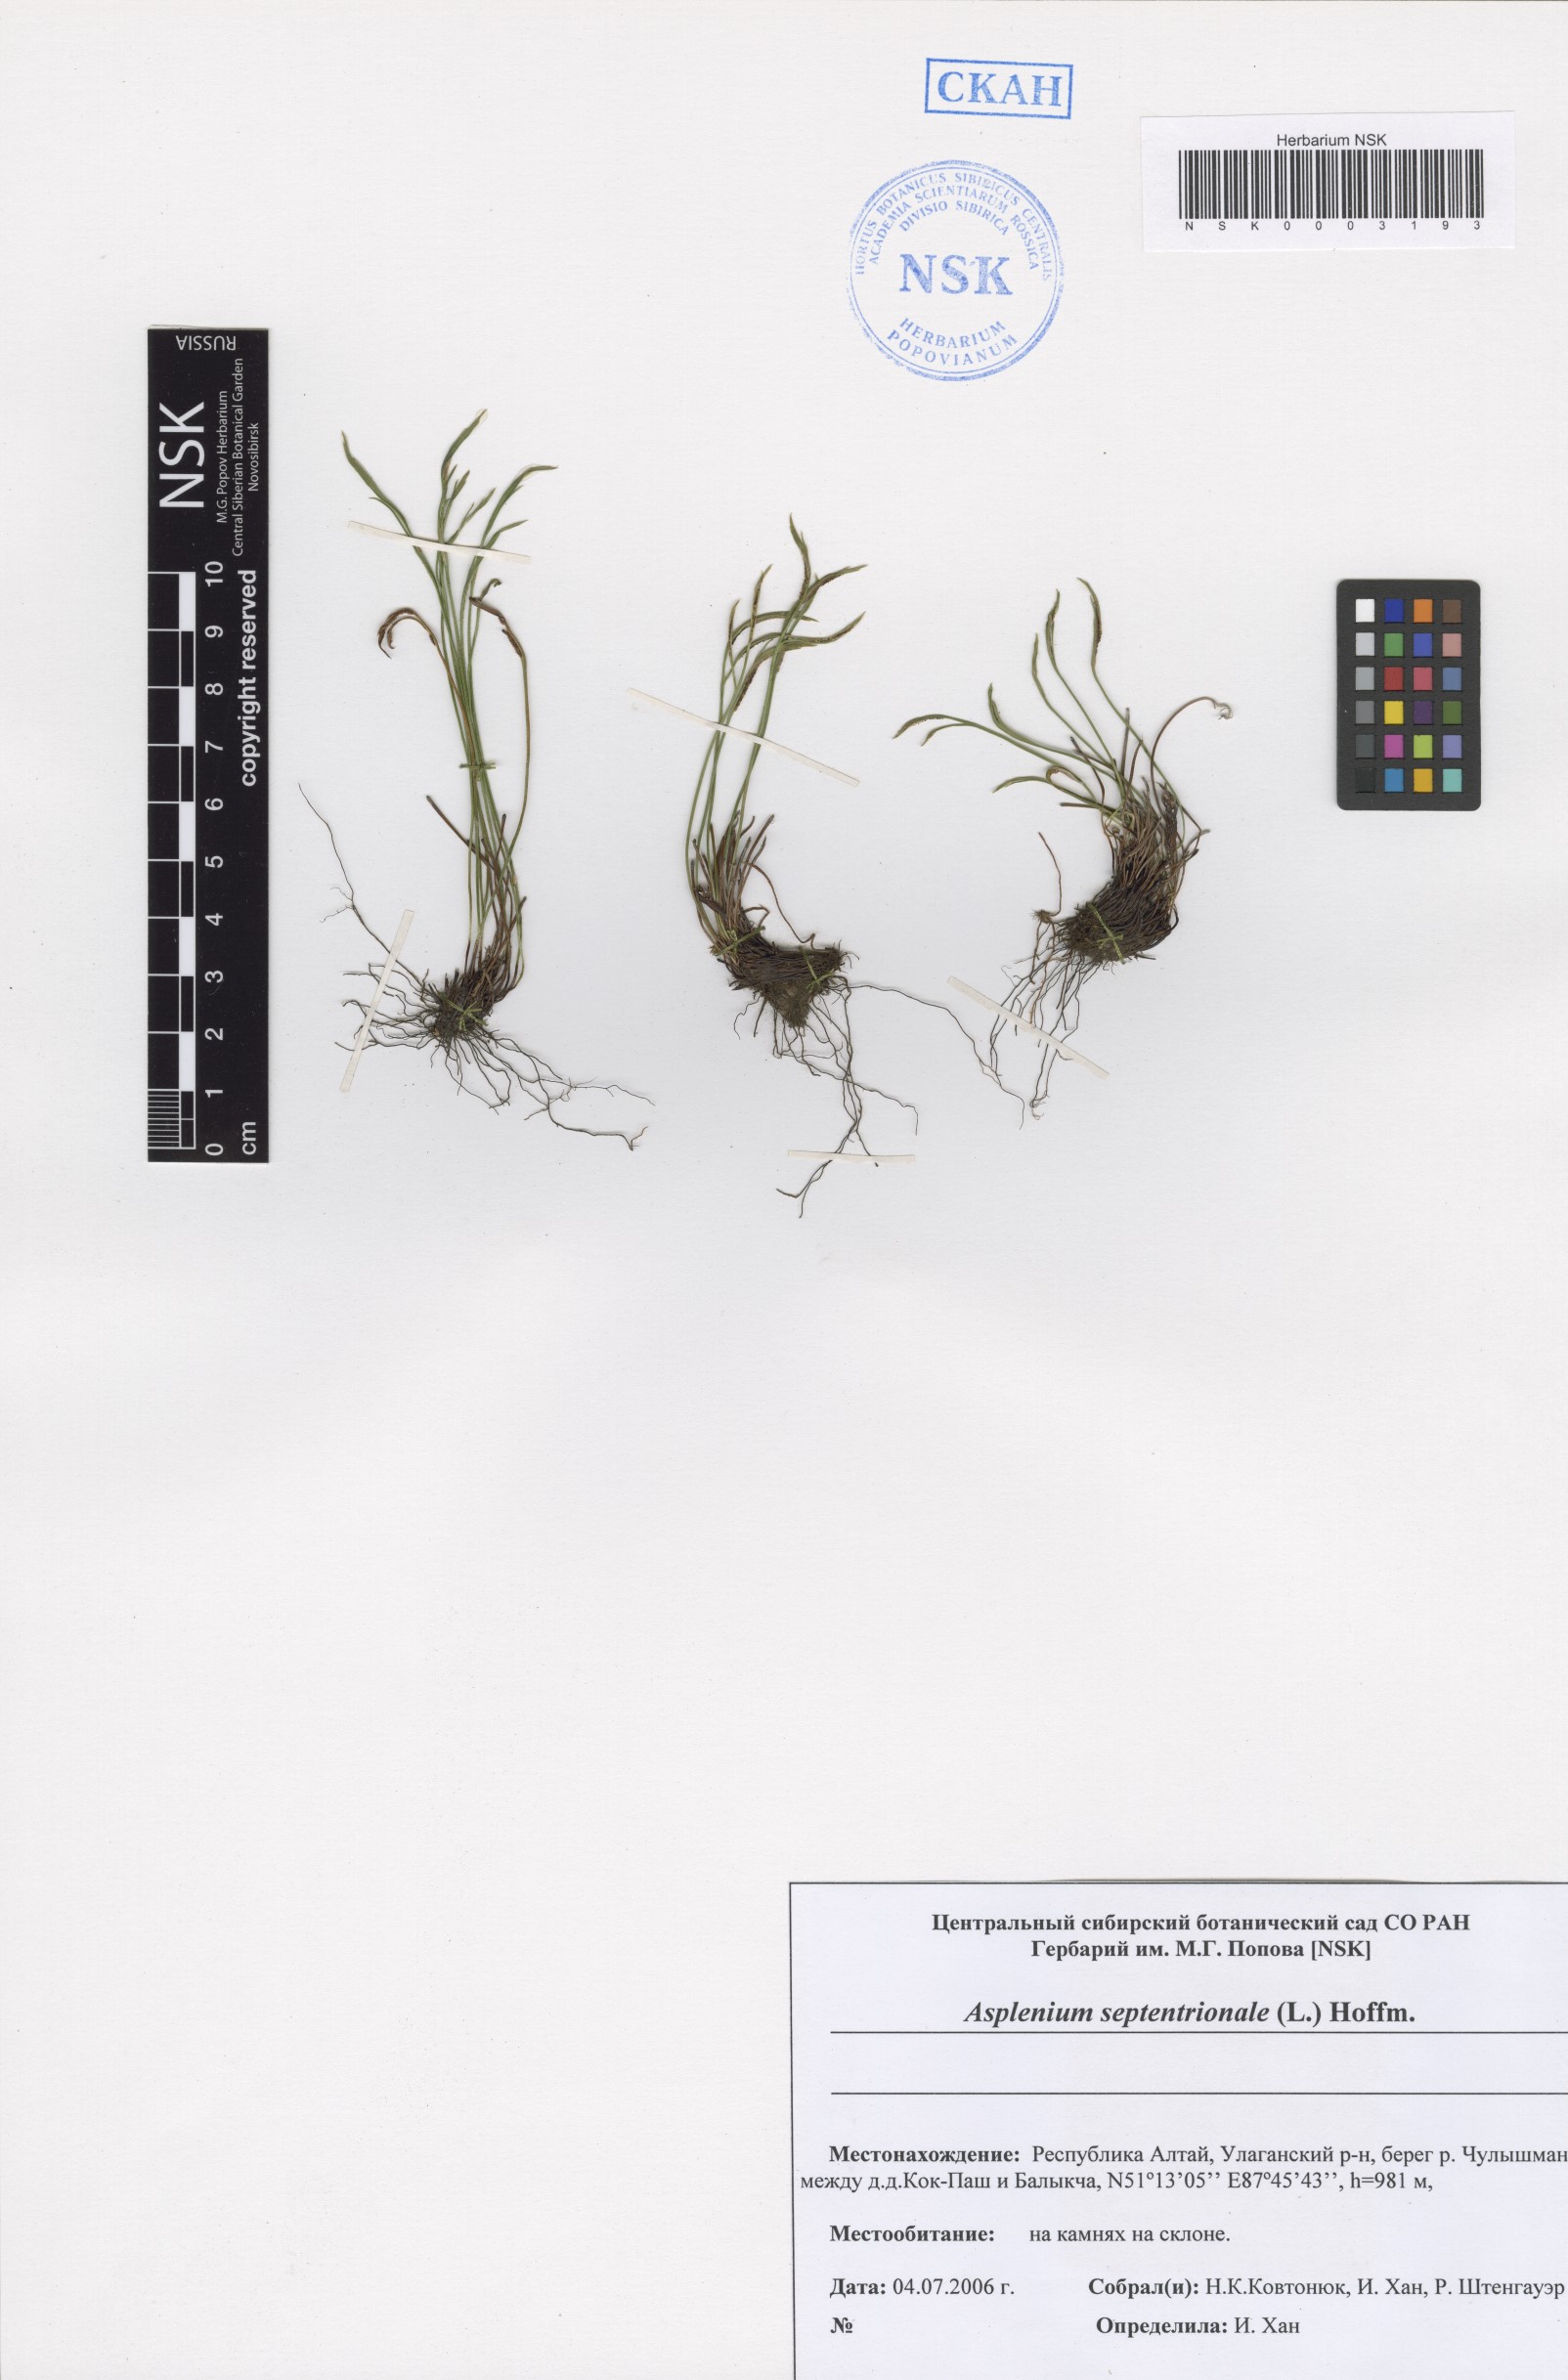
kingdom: Plantae
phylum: Tracheophyta
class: Polypodiopsida
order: Polypodiales
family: Aspleniaceae
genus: Asplenium
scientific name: Asplenium septentrionale
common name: Forked spleenwort
